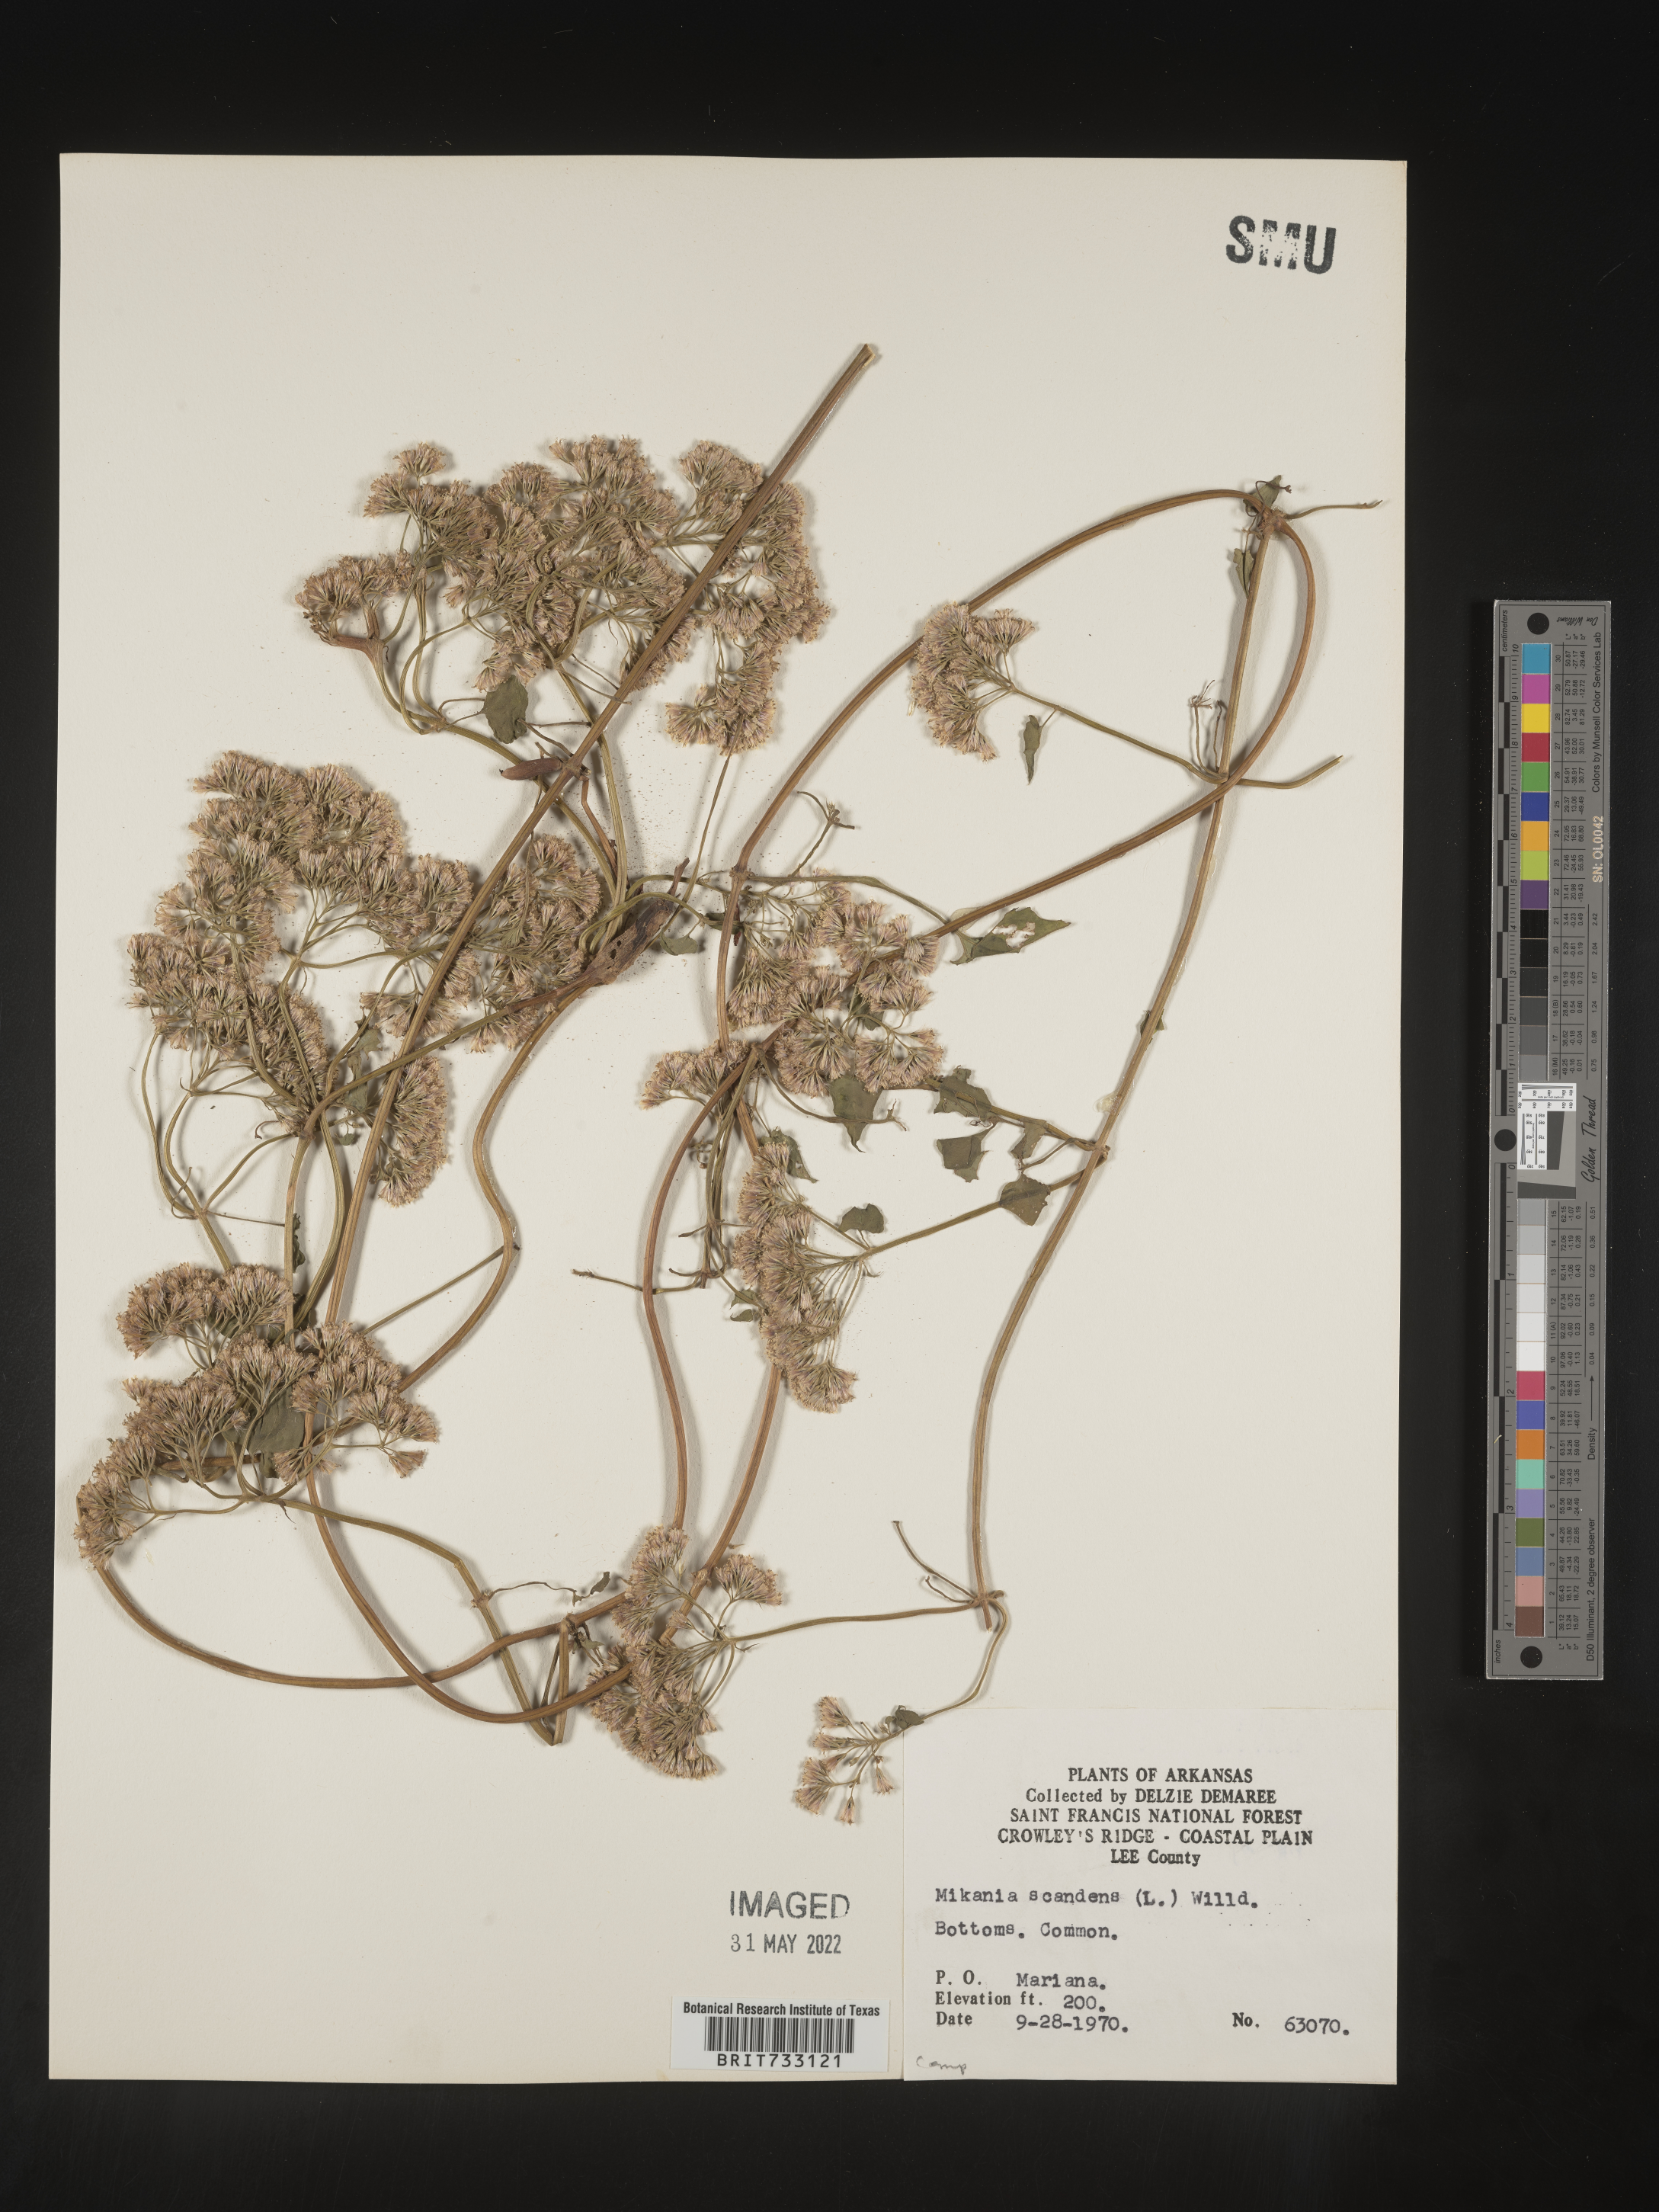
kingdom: Plantae
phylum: Tracheophyta
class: Magnoliopsida
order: Asterales
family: Asteraceae
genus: Mikania
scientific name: Mikania scandens
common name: Climbing hempvine
